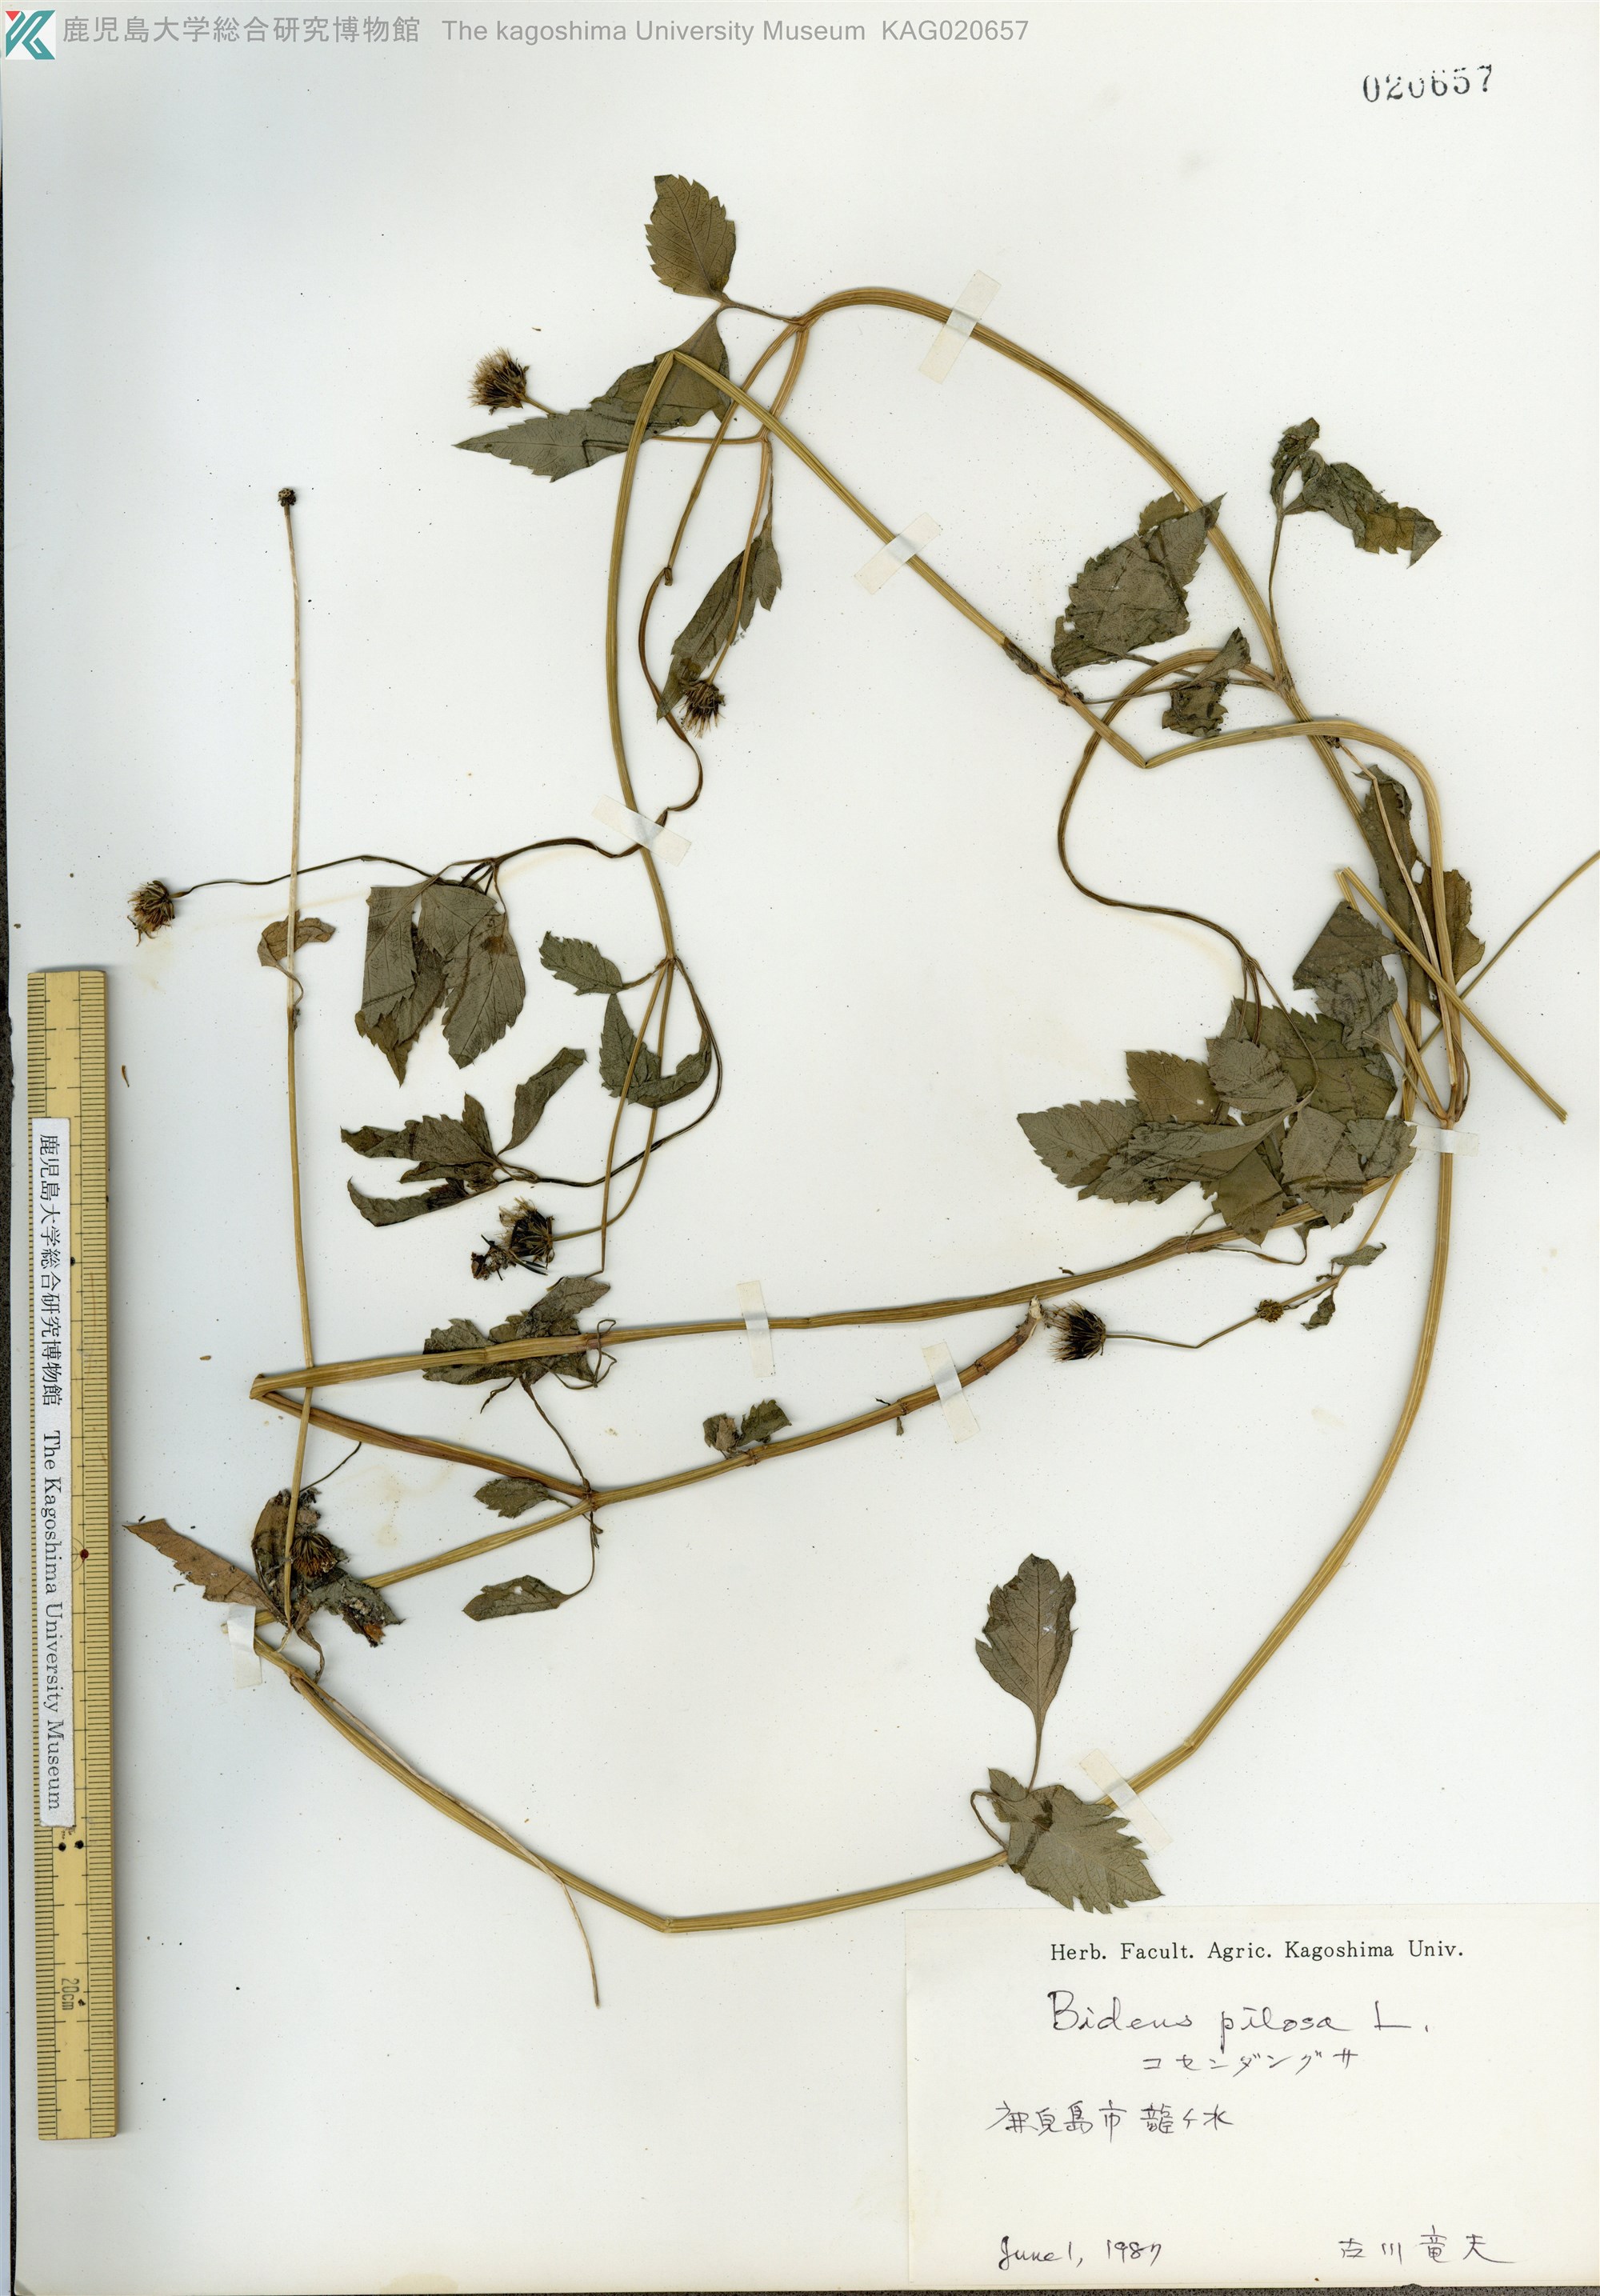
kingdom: Plantae
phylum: Tracheophyta
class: Magnoliopsida
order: Asterales
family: Asteraceae
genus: Bidens
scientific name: Bidens pilosa
